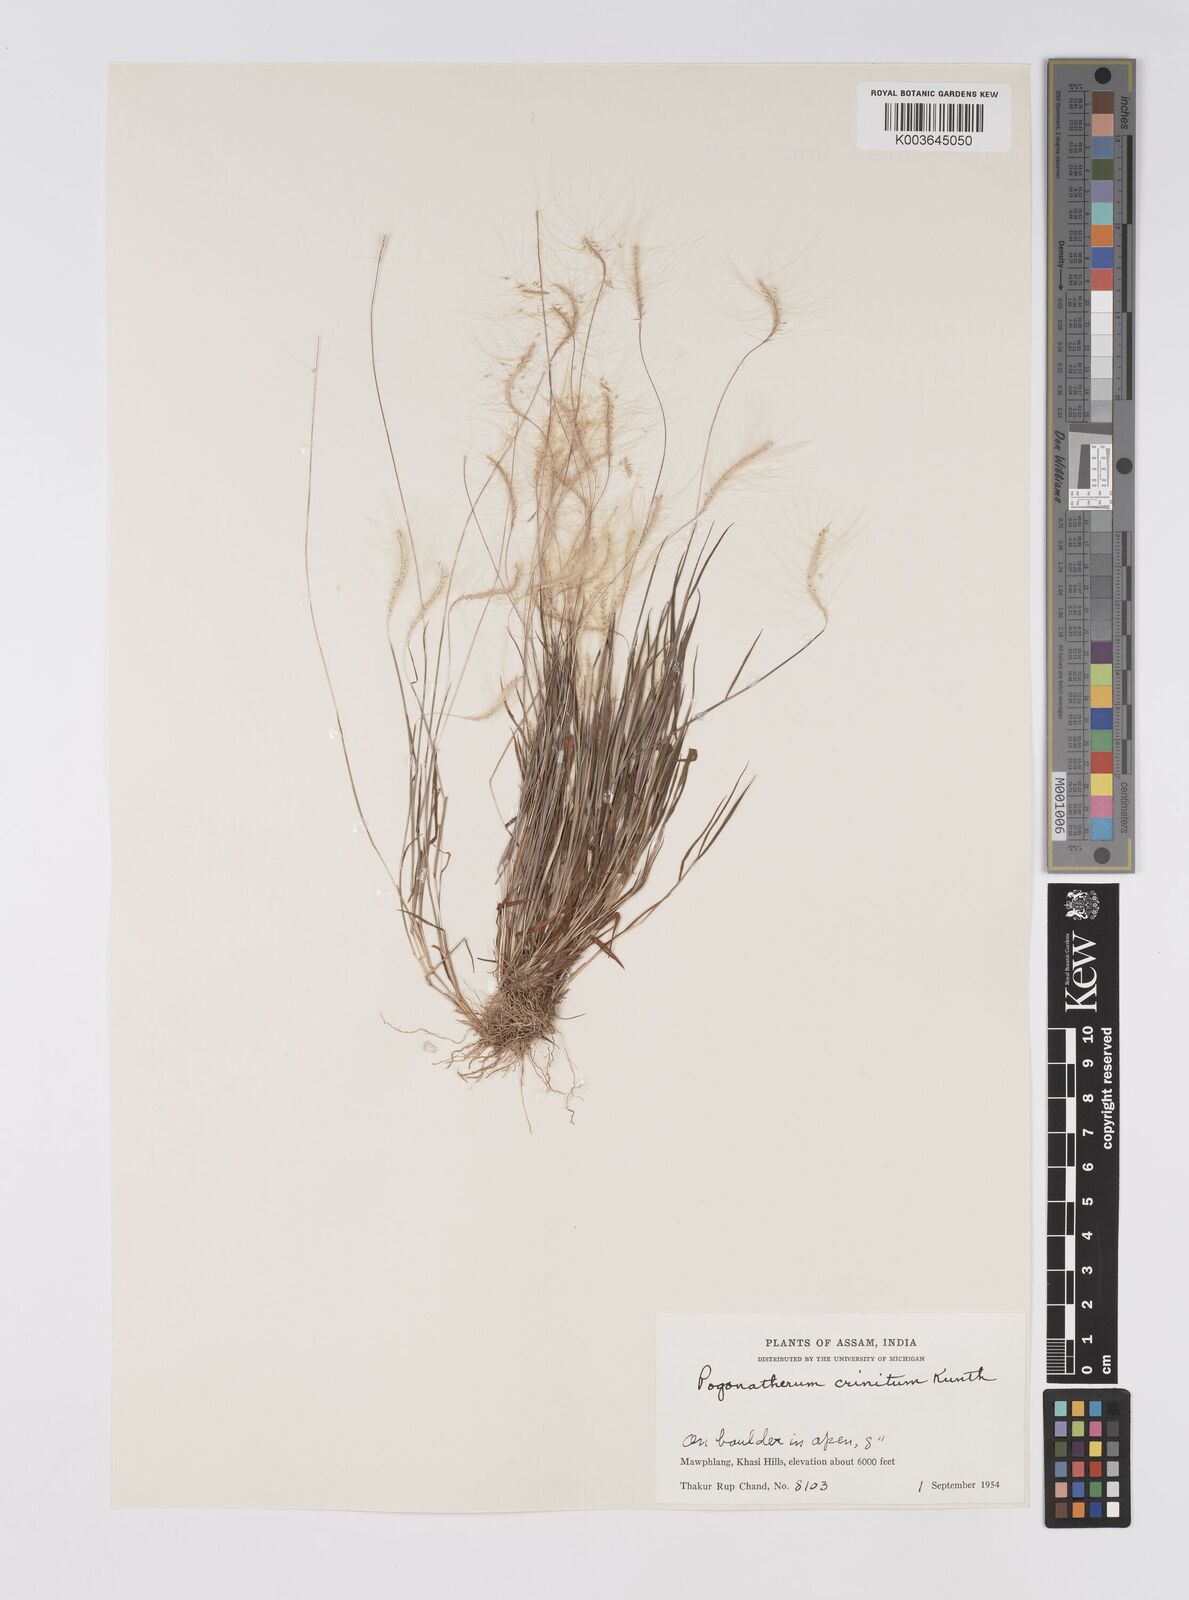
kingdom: Plantae
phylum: Tracheophyta
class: Liliopsida
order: Poales
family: Poaceae
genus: Pogonatherum
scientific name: Pogonatherum crinitum
